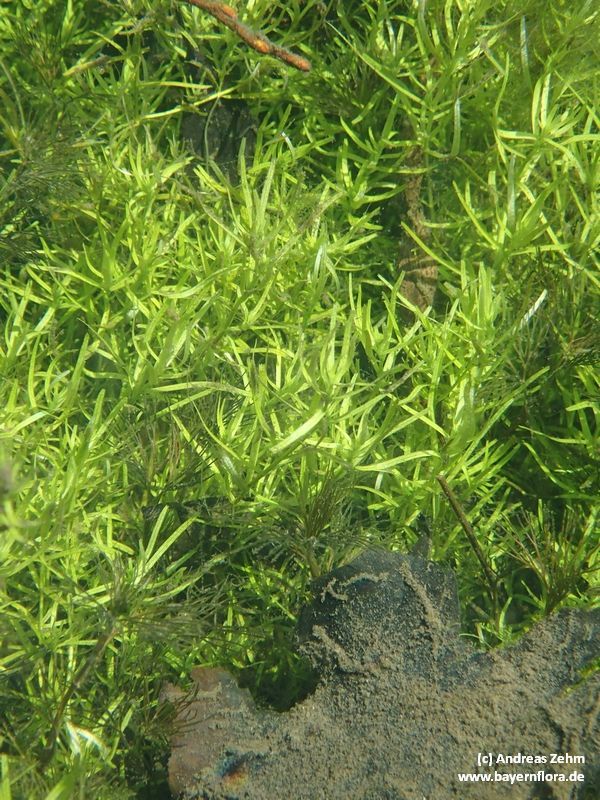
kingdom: Plantae
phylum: Tracheophyta
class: Magnoliopsida
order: Lamiales
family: Plantaginaceae
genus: Callitriche
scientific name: Callitriche
